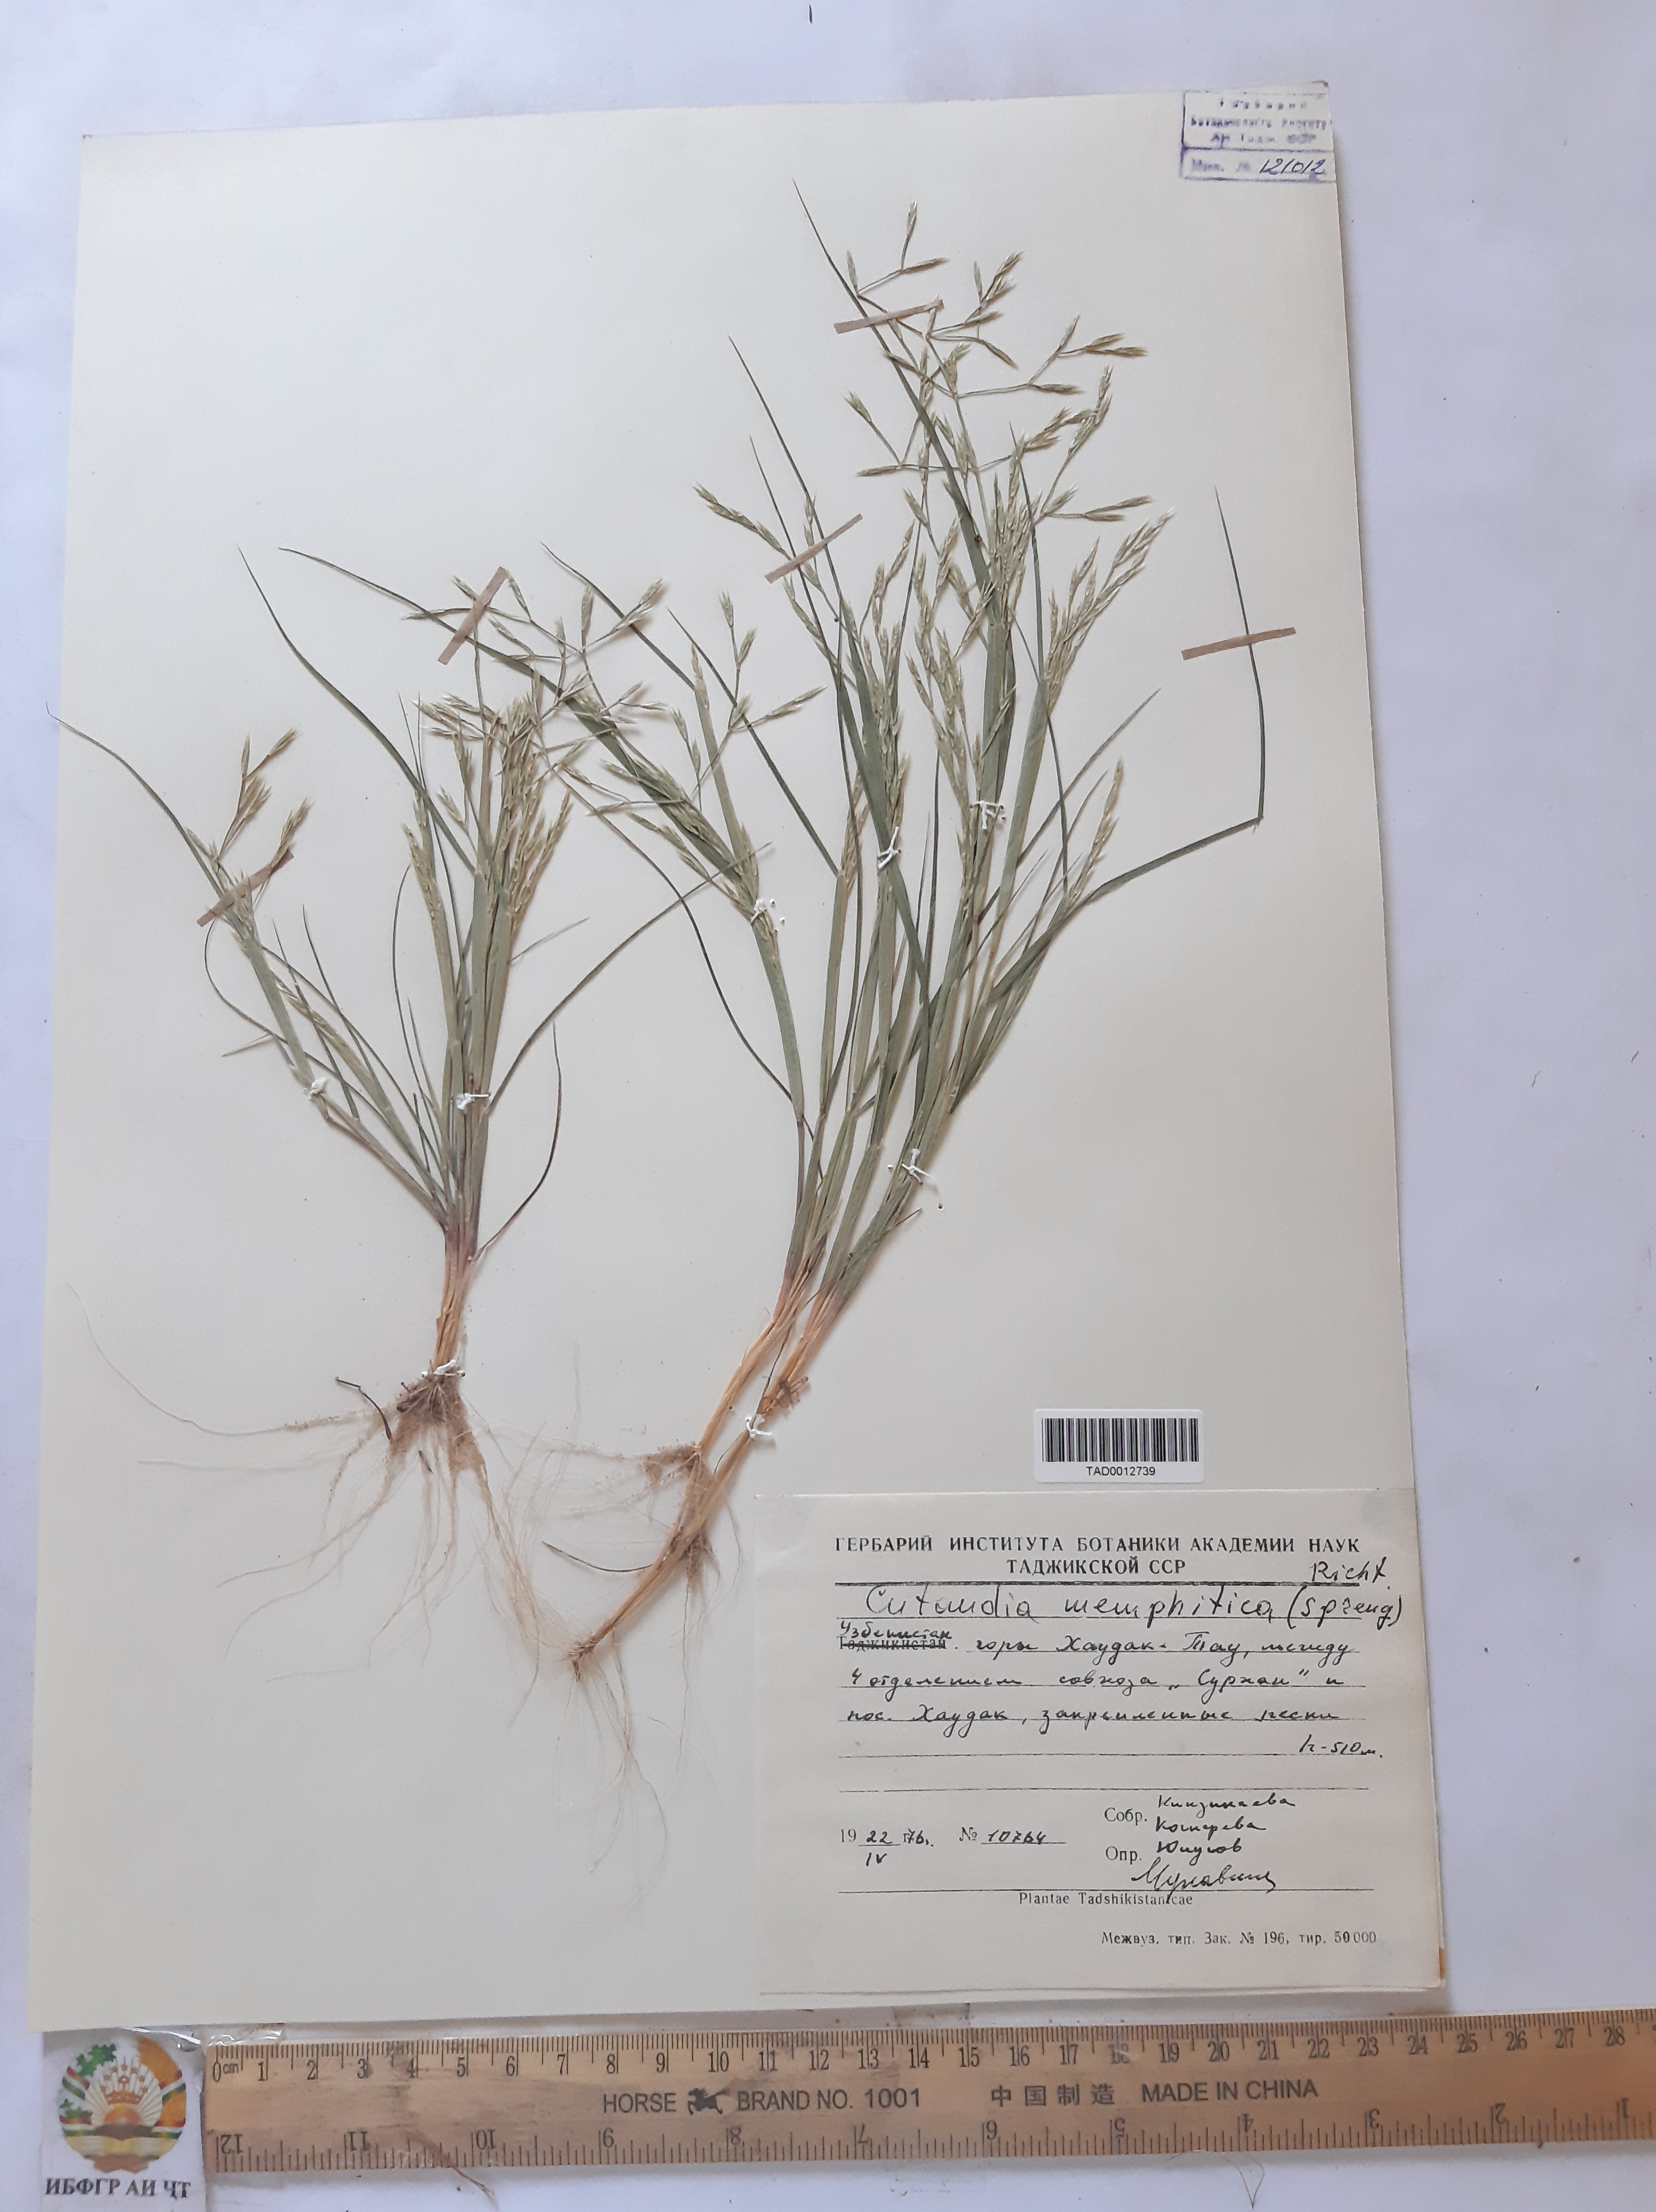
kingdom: Plantae
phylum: Tracheophyta
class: Liliopsida
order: Poales
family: Poaceae
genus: Cutandia
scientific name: Cutandia memphitica
